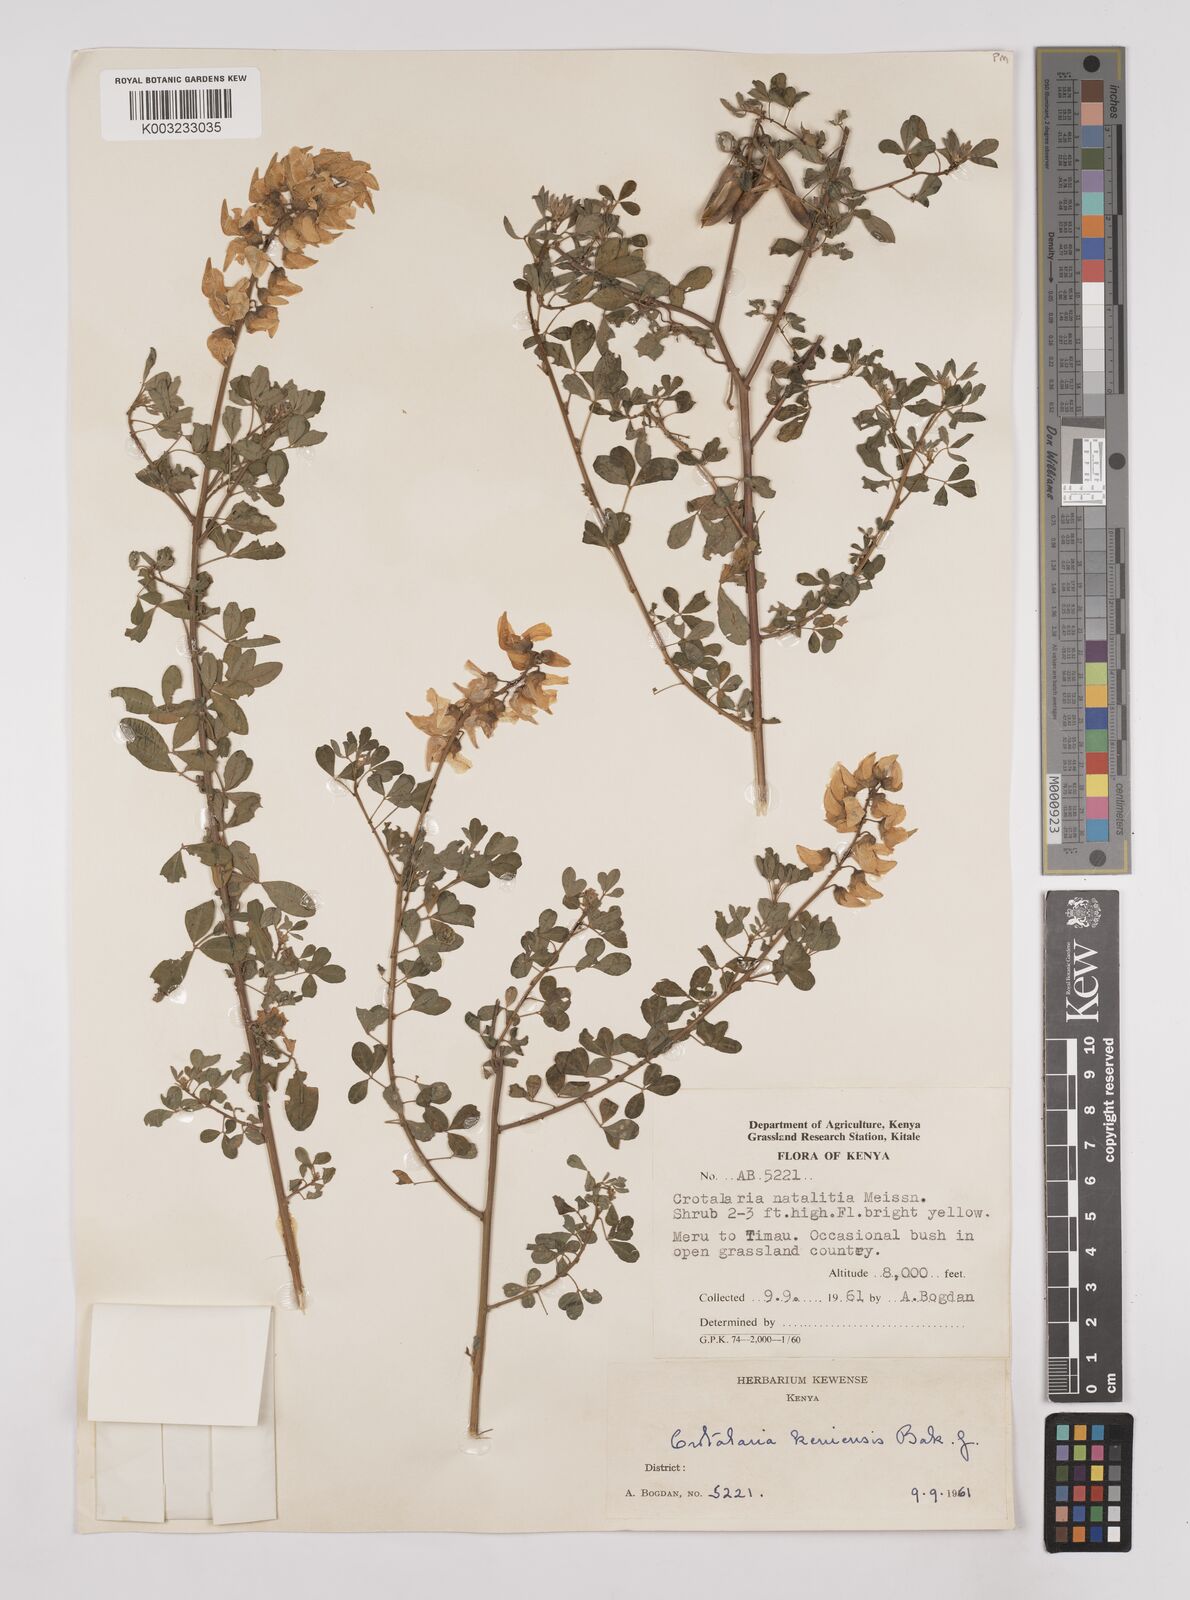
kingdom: Plantae
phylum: Tracheophyta
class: Magnoliopsida
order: Fabales
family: Fabaceae
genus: Crotalaria
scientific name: Crotalaria keniensis
